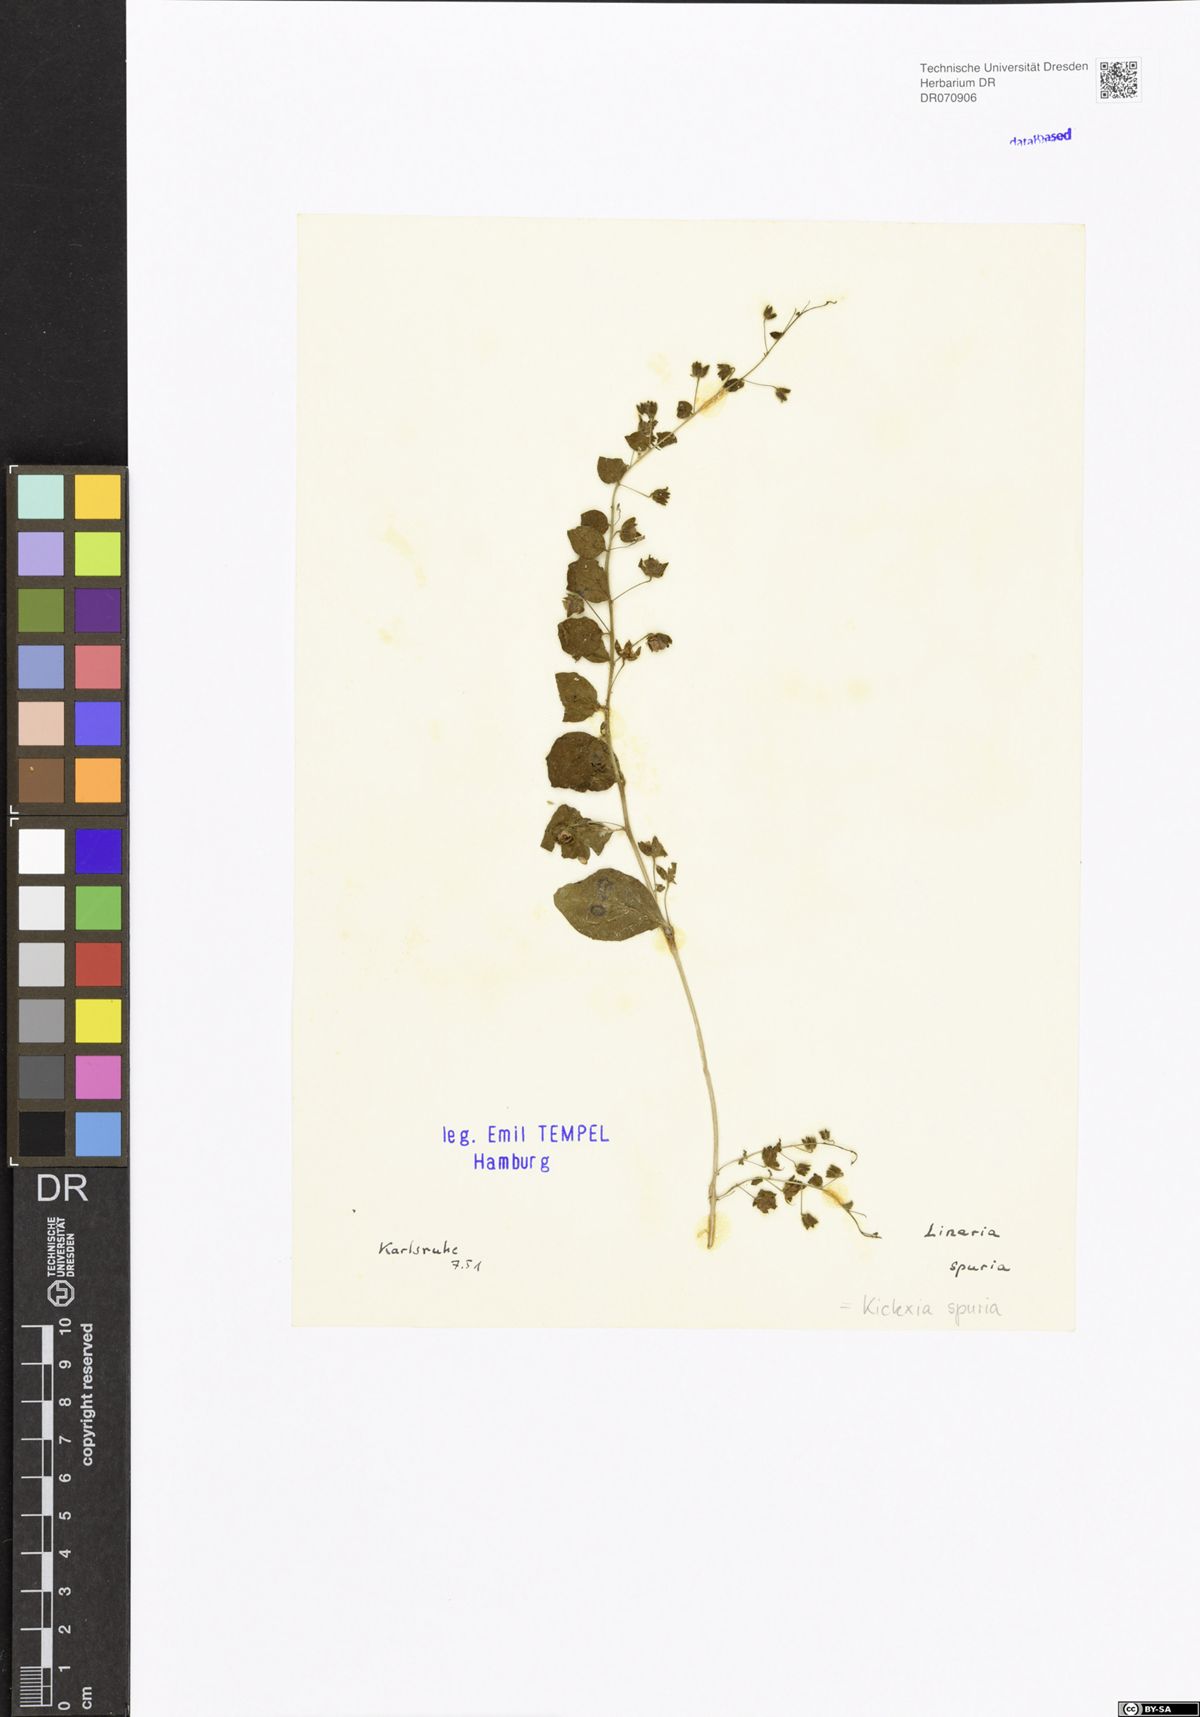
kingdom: Plantae
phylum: Tracheophyta
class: Magnoliopsida
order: Lamiales
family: Plantaginaceae
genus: Kickxia
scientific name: Kickxia spuria
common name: Round-leaved fluellen
